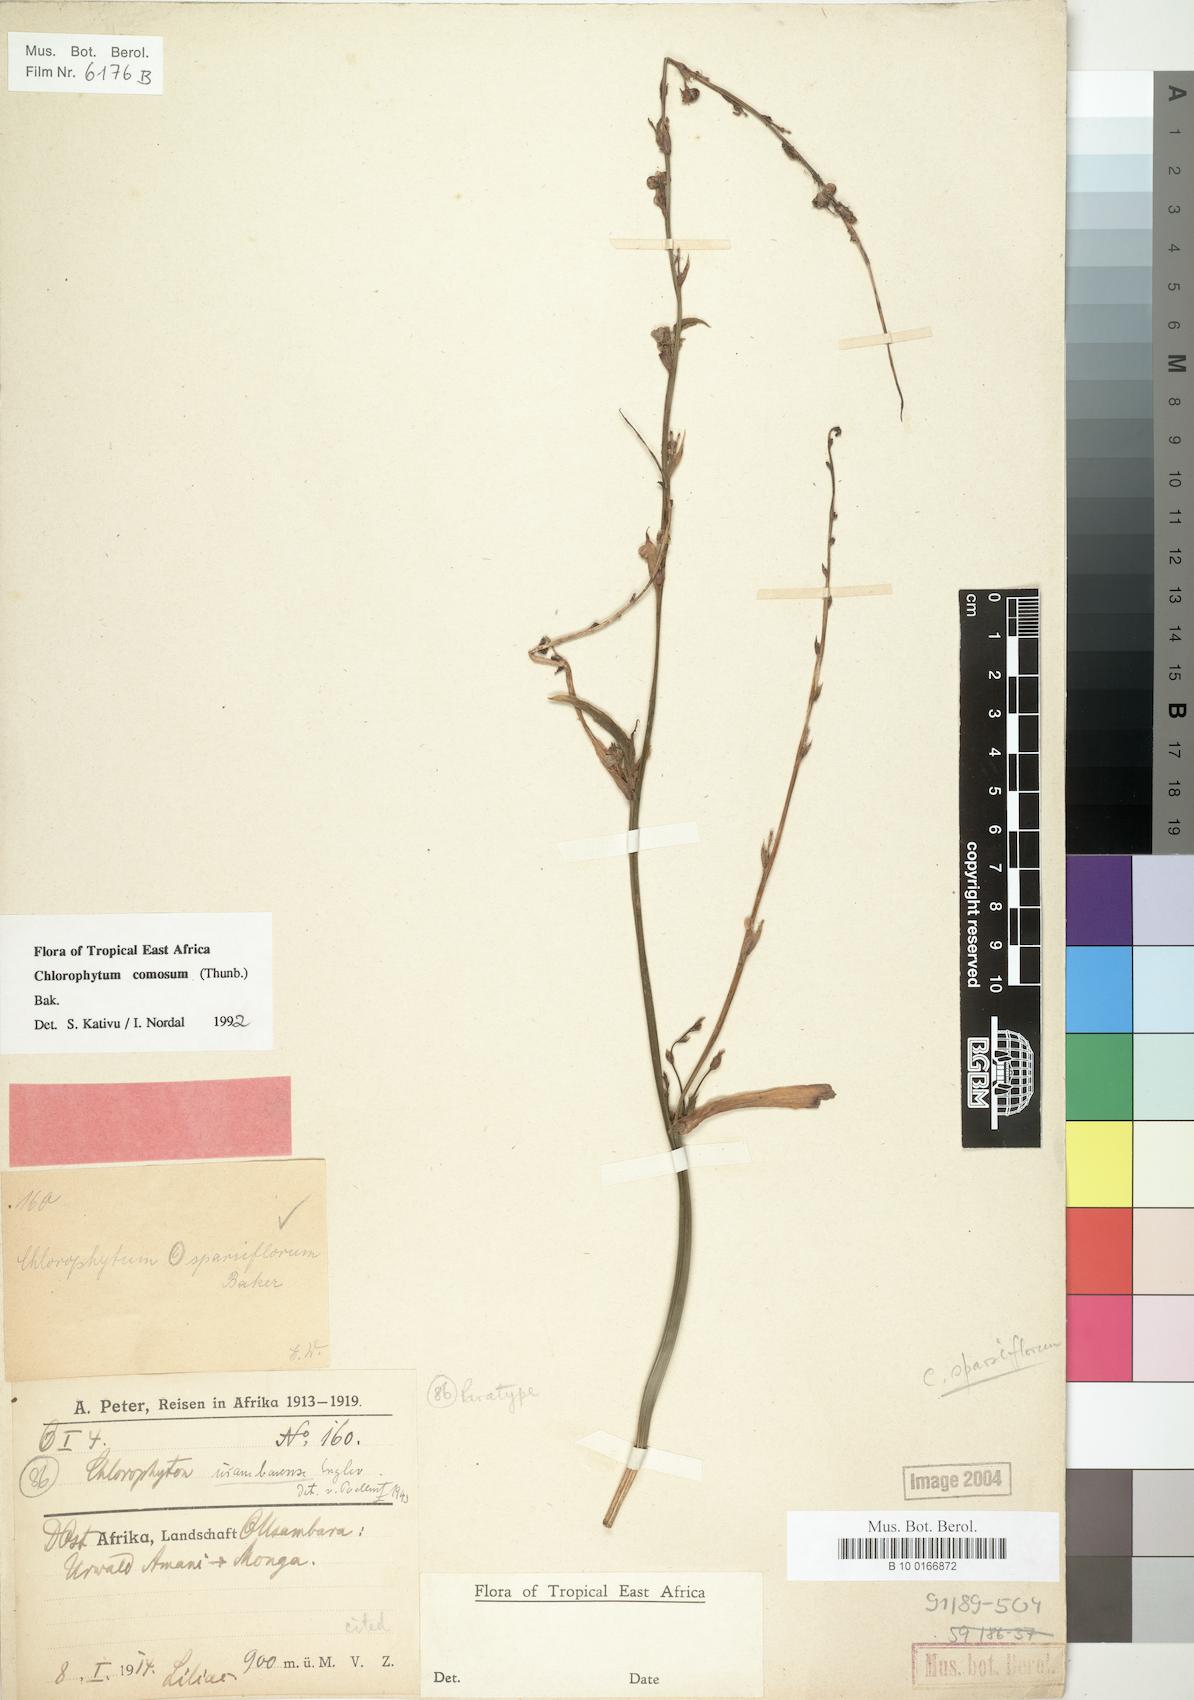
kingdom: Plantae
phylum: Tracheophyta
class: Liliopsida
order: Asparagales
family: Asparagaceae
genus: Chlorophytum
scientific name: Chlorophytum comosum
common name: Spider plant
